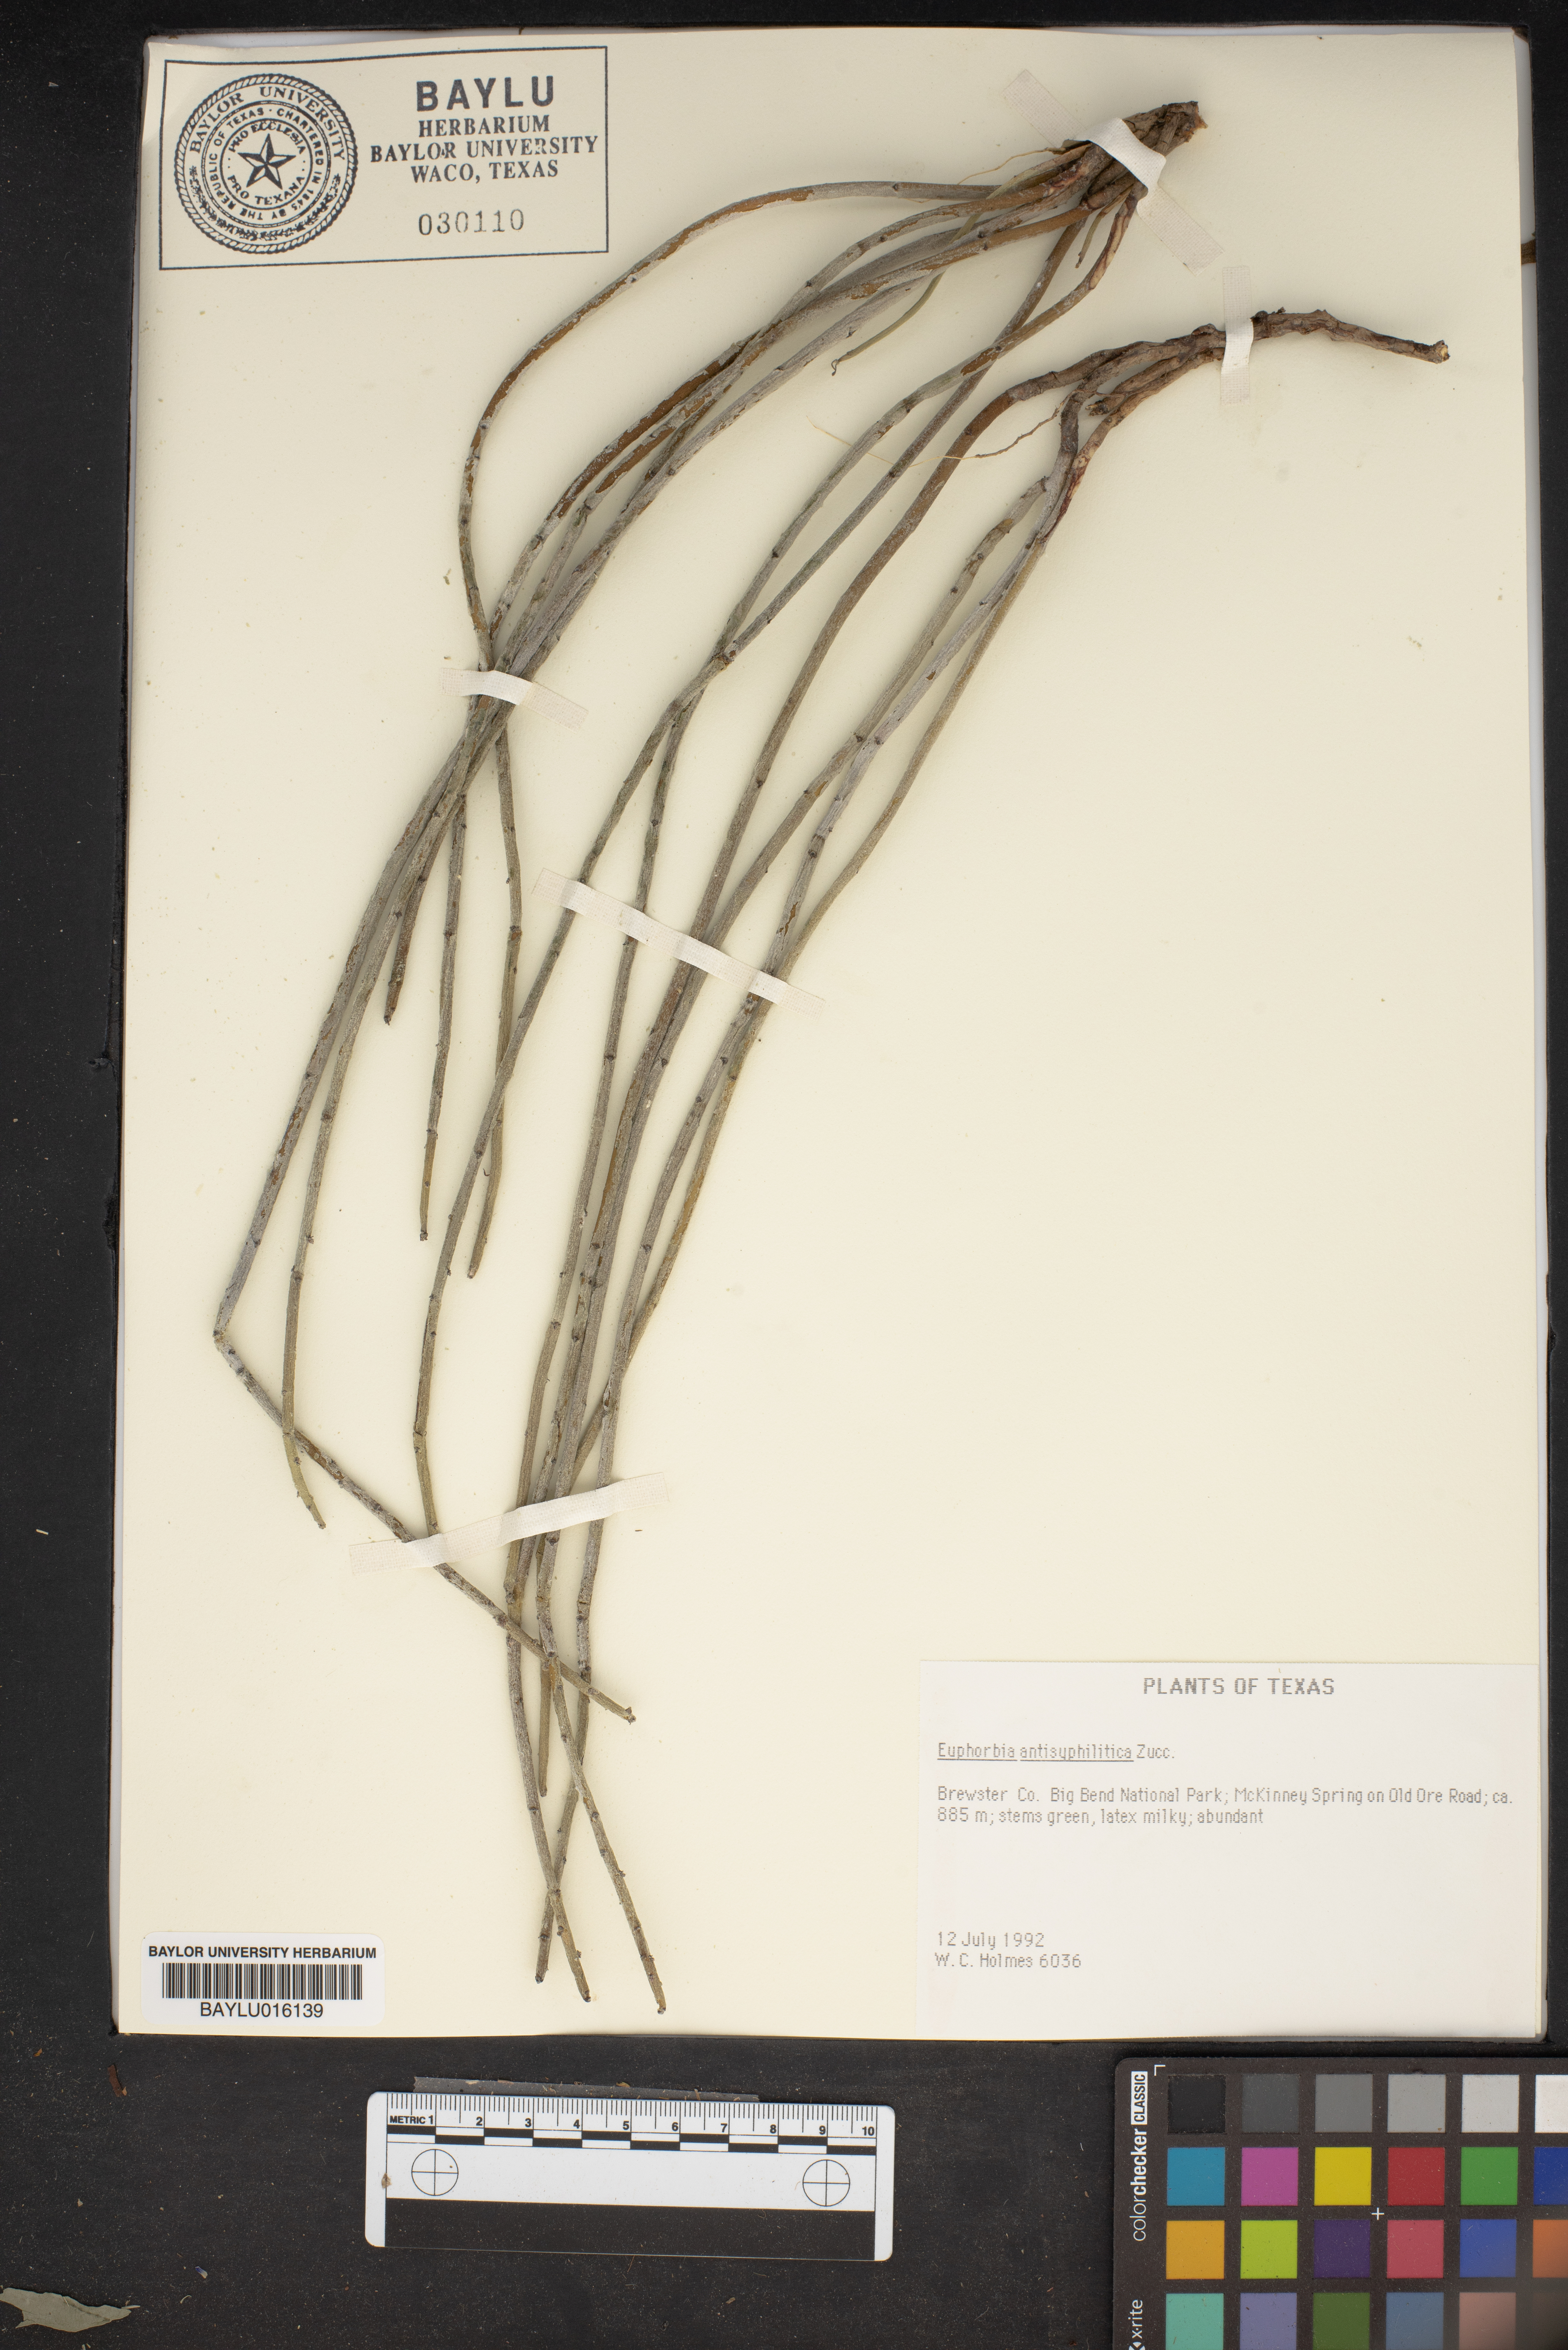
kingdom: Plantae
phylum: Tracheophyta
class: Magnoliopsida
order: Malpighiales
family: Euphorbiaceae
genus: Euphorbia
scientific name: Euphorbia antisyphilitica
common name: Candelilla
